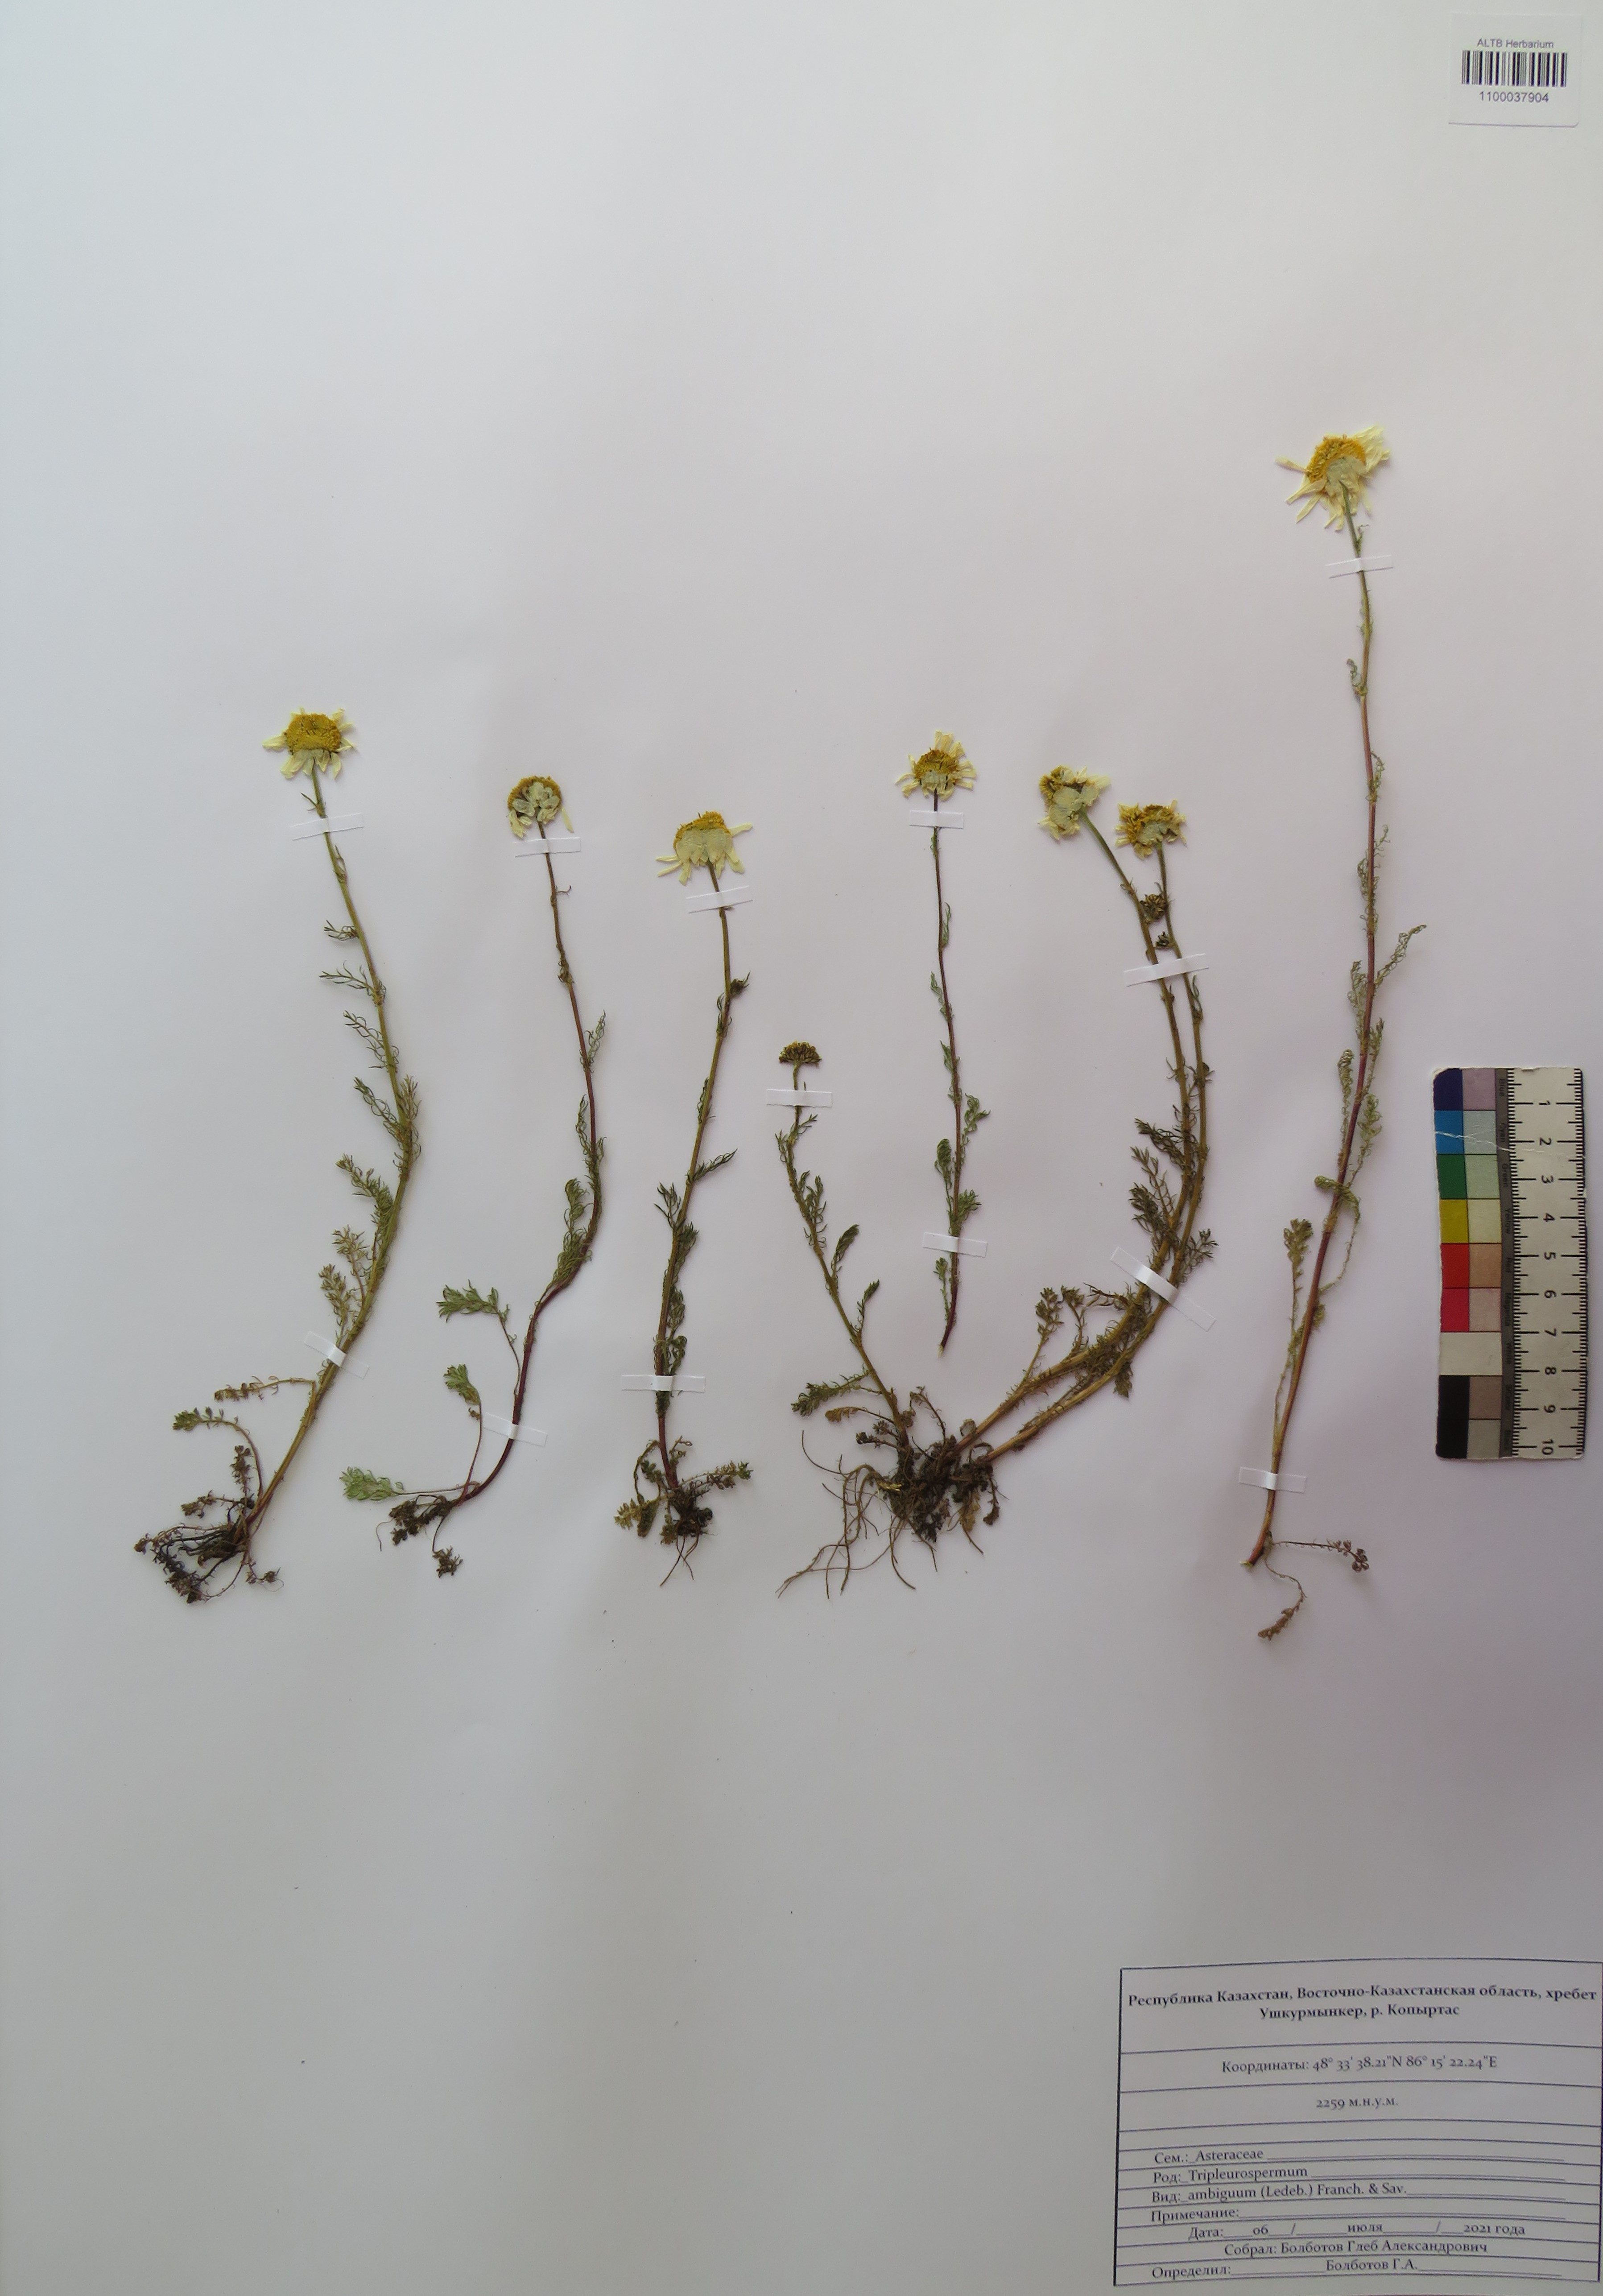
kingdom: Plantae
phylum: Tracheophyta
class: Magnoliopsida
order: Asterales
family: Asteraceae
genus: Tripleurospermum
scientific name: Tripleurospermum ambiguum
